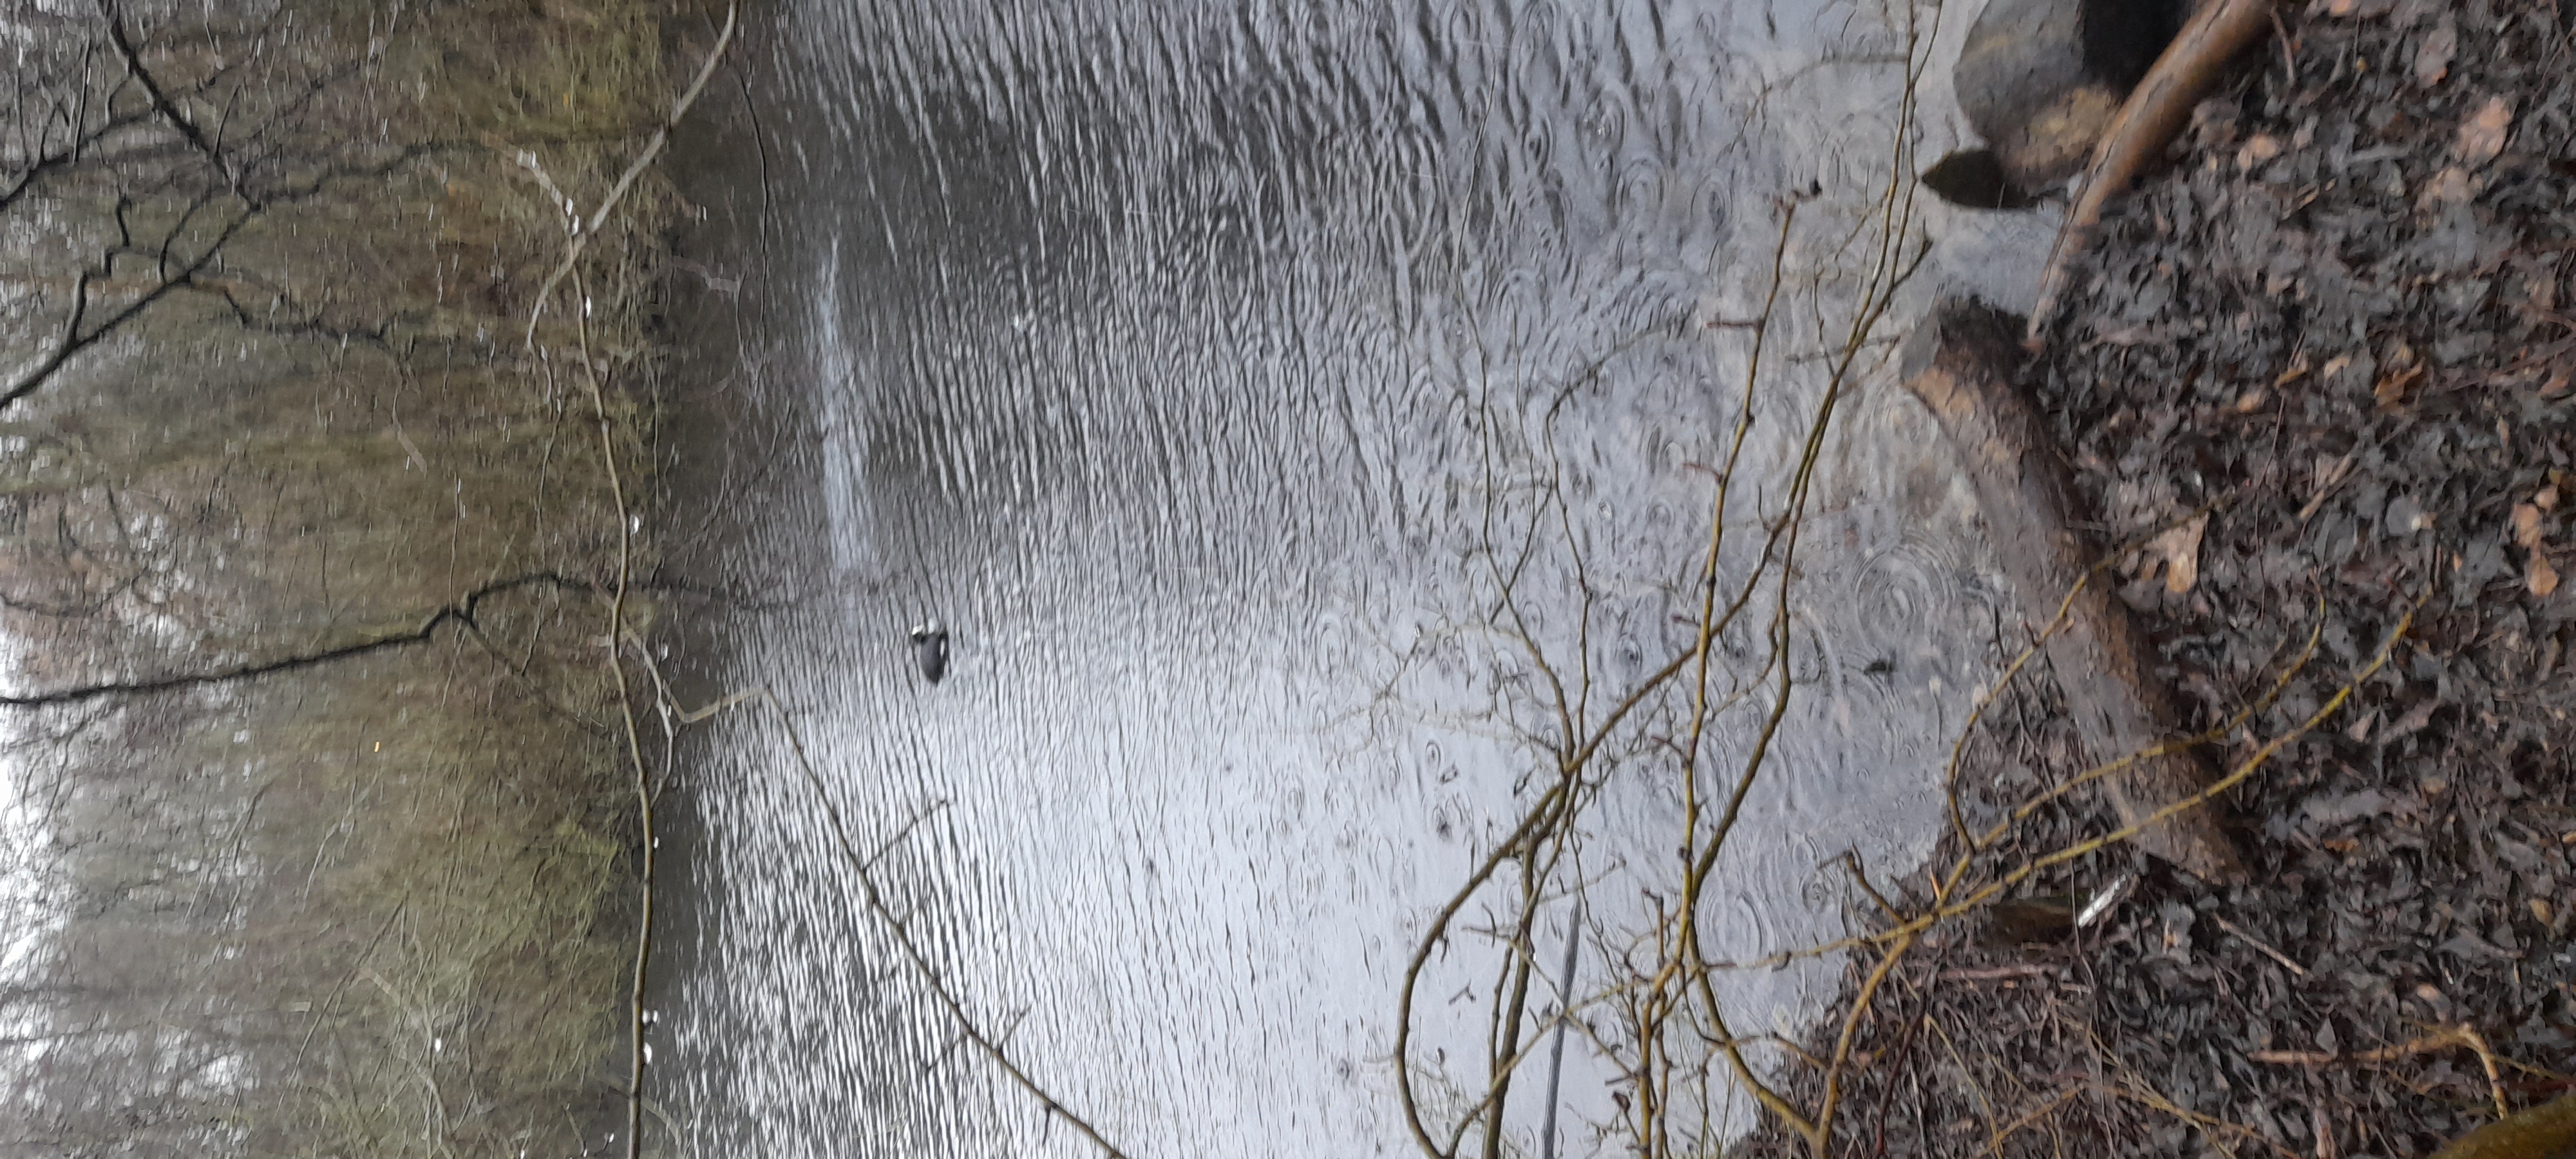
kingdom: Animalia
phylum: Chordata
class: Aves
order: Gruiformes
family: Rallidae
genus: Fulica
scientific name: Fulica atra
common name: Blishøne
